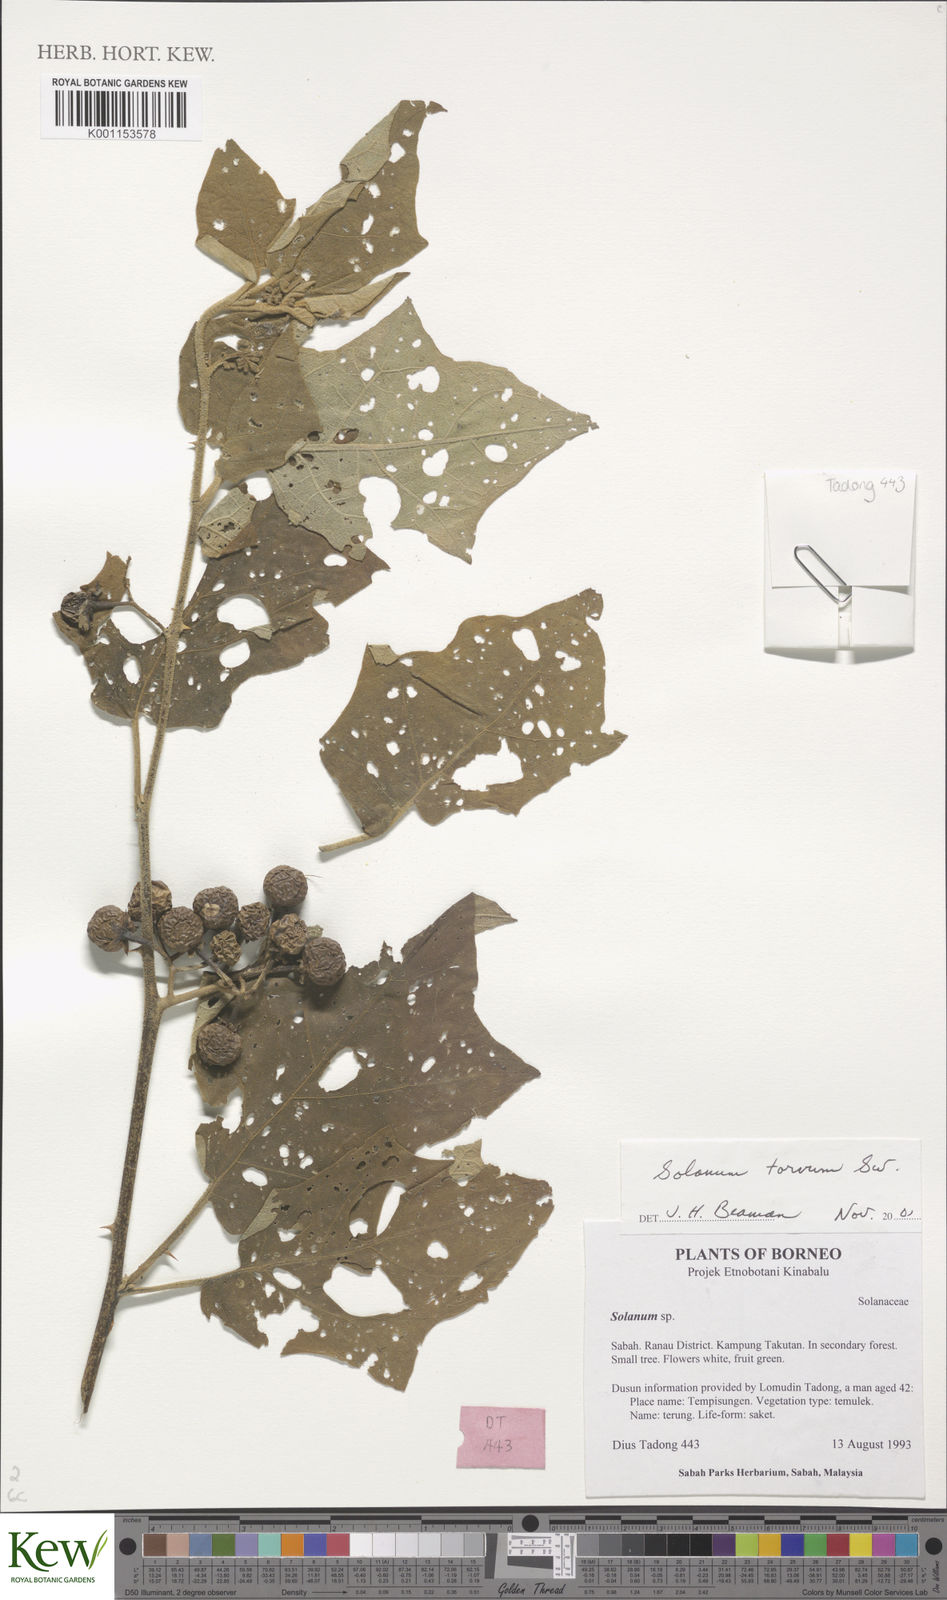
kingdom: Plantae
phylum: Tracheophyta
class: Magnoliopsida
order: Solanales
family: Solanaceae
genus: Solanum
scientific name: Solanum torvum
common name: Turkey berry
